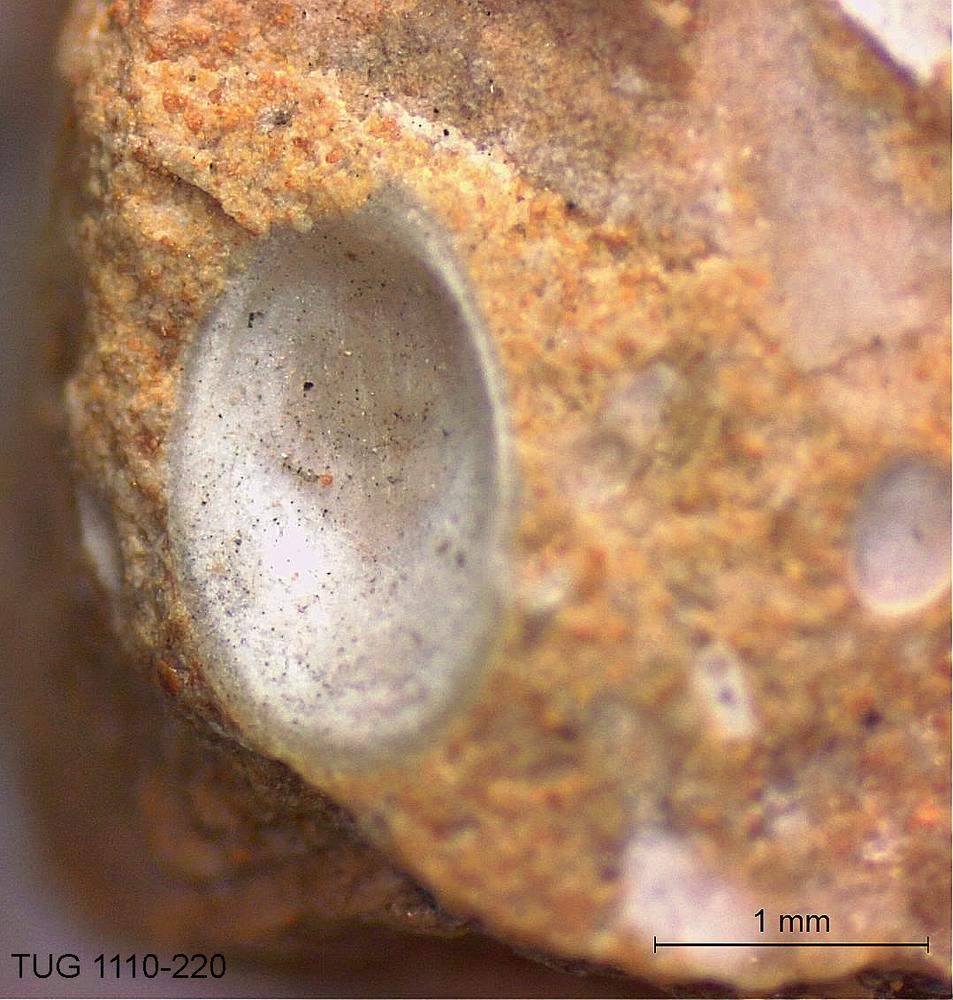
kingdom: Animalia
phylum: Brachiopoda
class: Craniata
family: Craniopsidae
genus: Craniops
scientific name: Craniops
